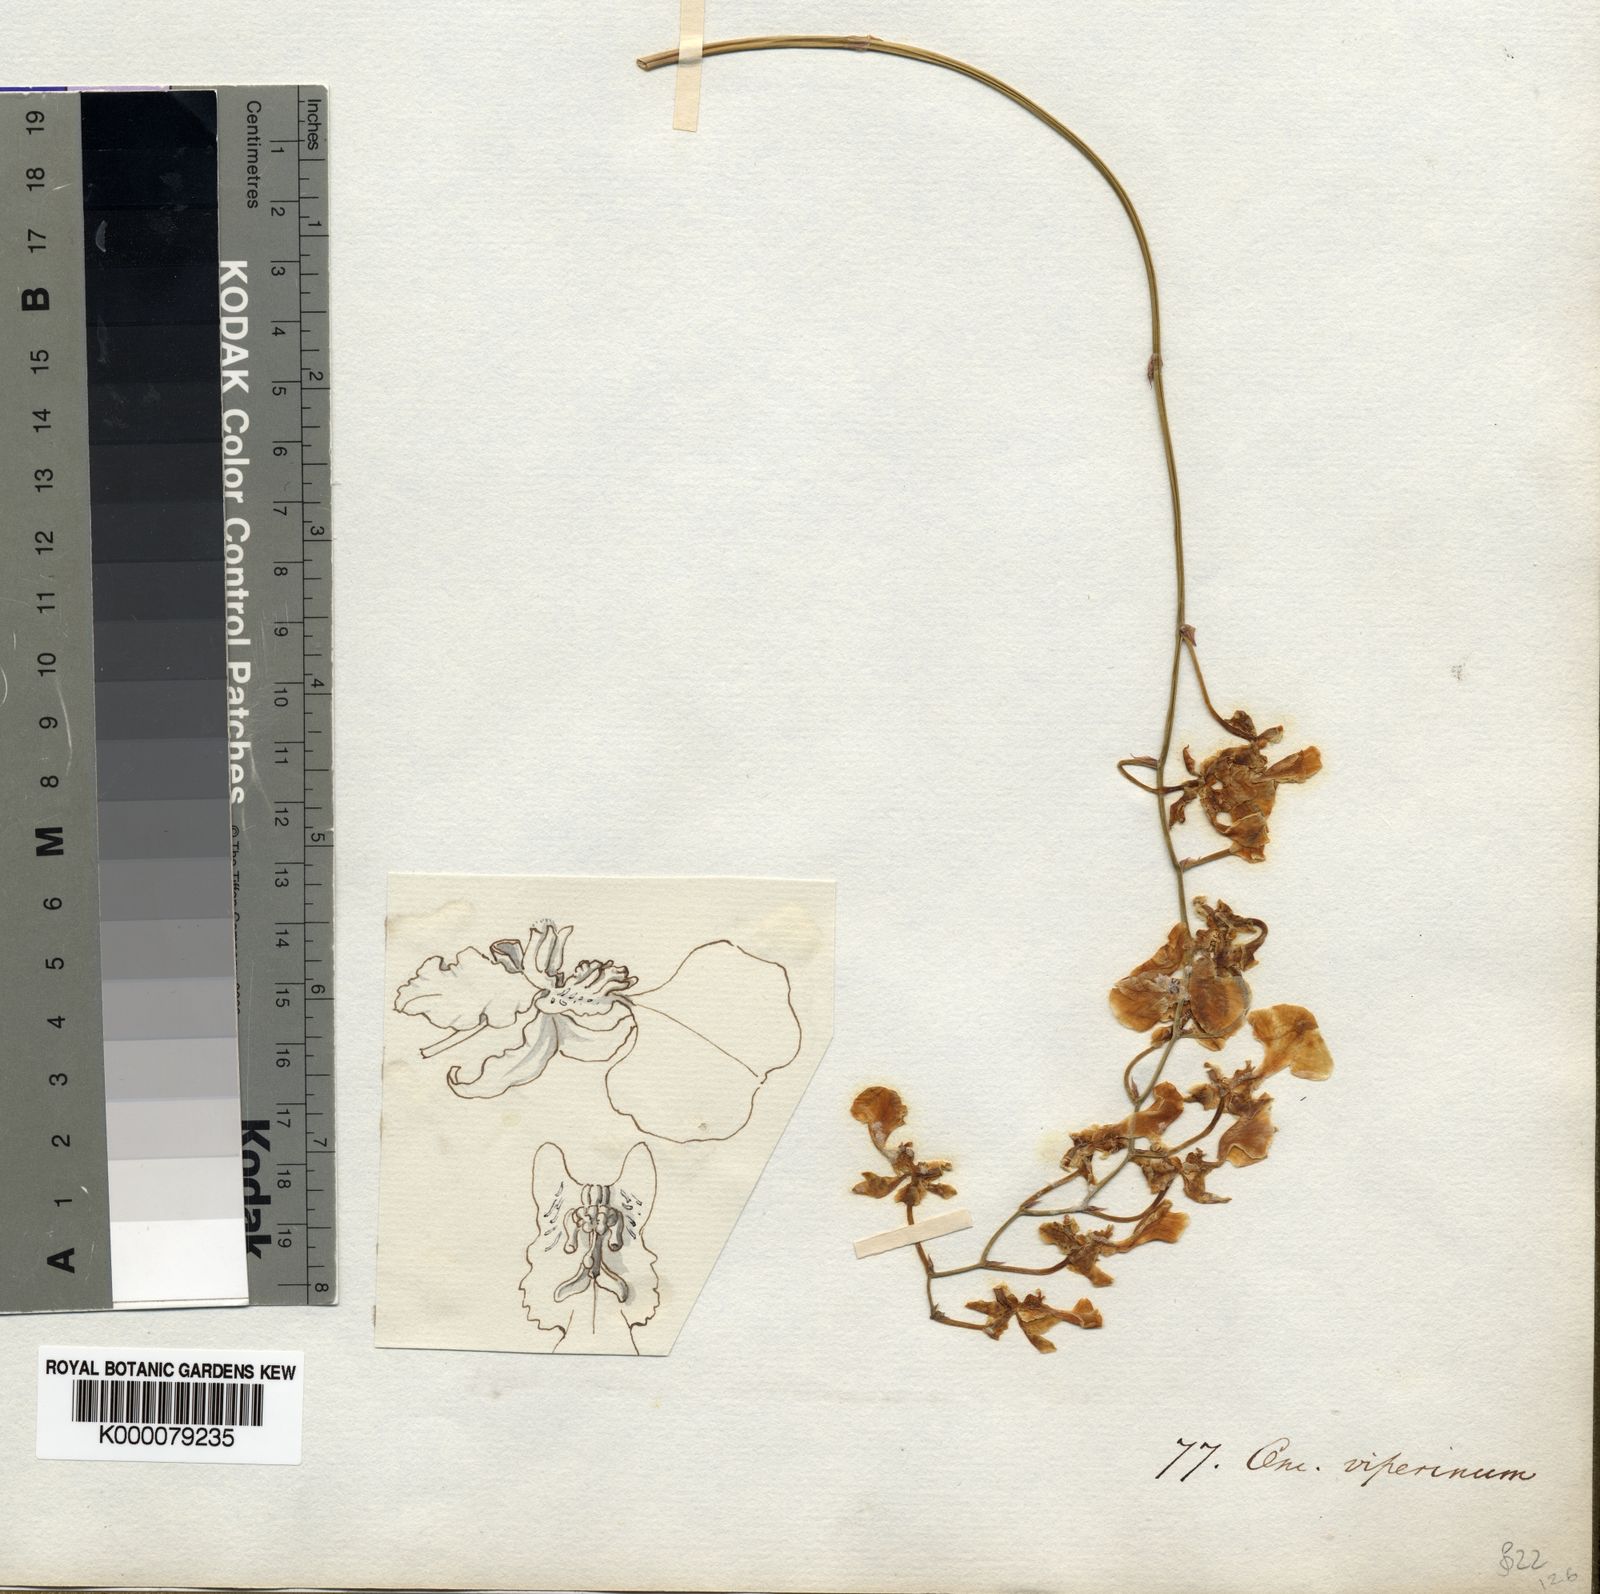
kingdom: Plantae
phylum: Tracheophyta
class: Liliopsida
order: Asparagales
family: Orchidaceae
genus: Gomesa
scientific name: Gomesa bifolia
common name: Dancing ladies
